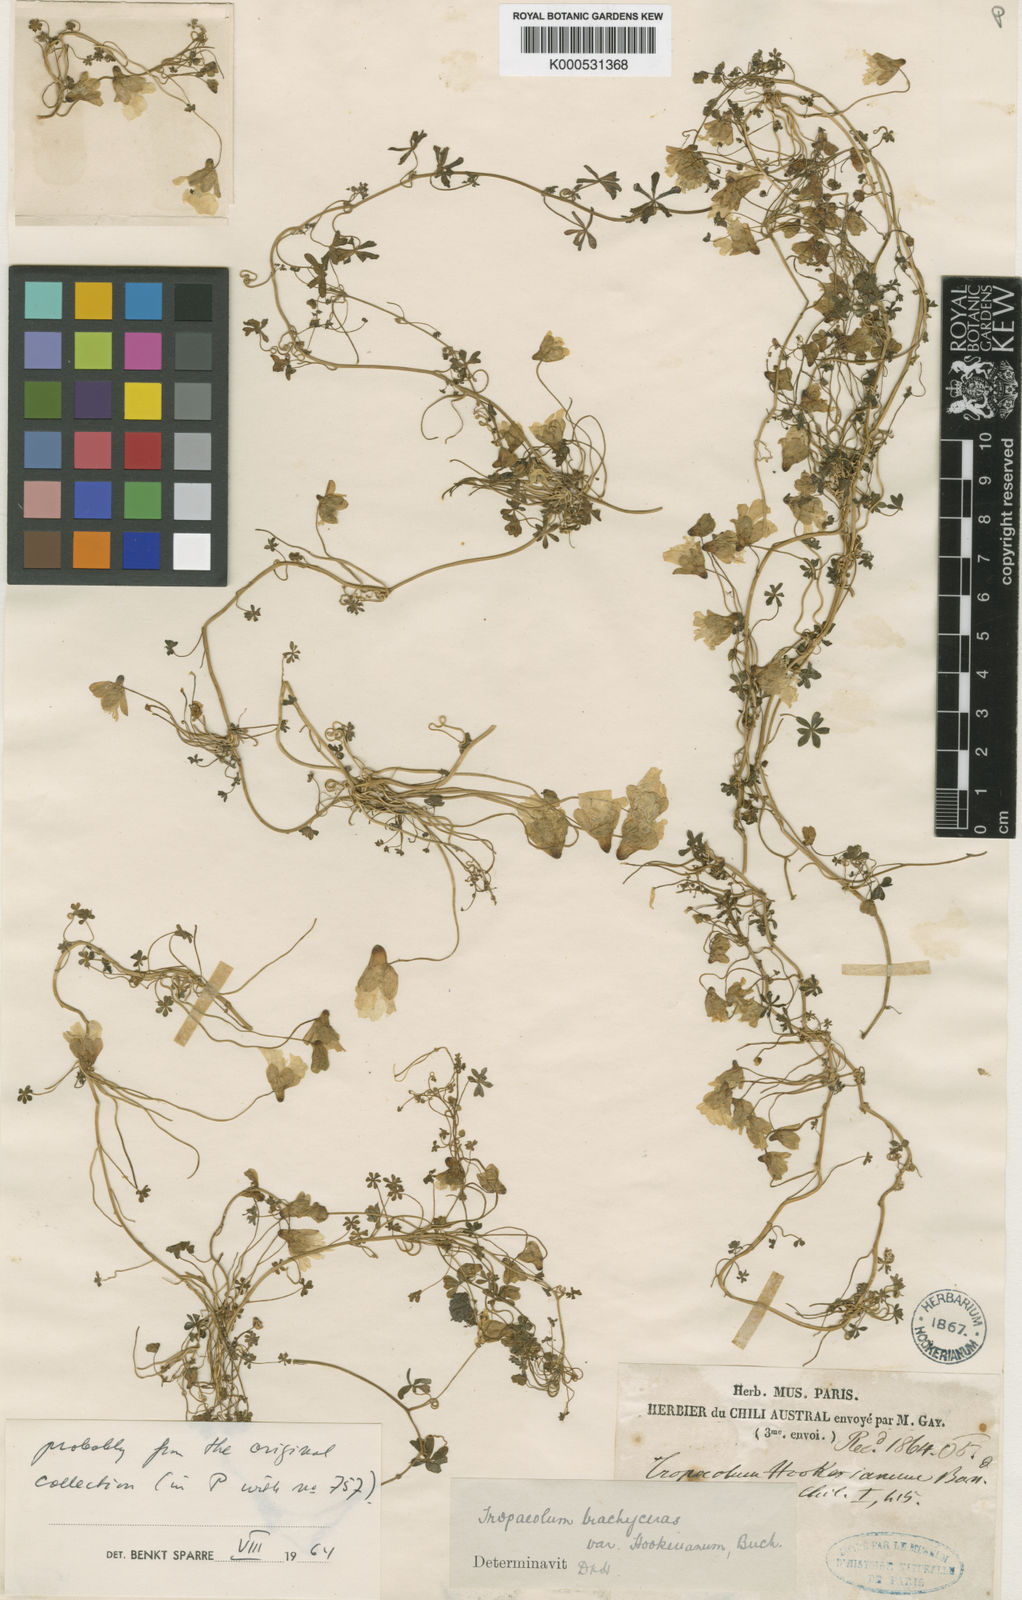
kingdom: Plantae
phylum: Tracheophyta
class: Magnoliopsida
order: Brassicales
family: Tropaeolaceae
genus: Tropaeolum
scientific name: Tropaeolum
